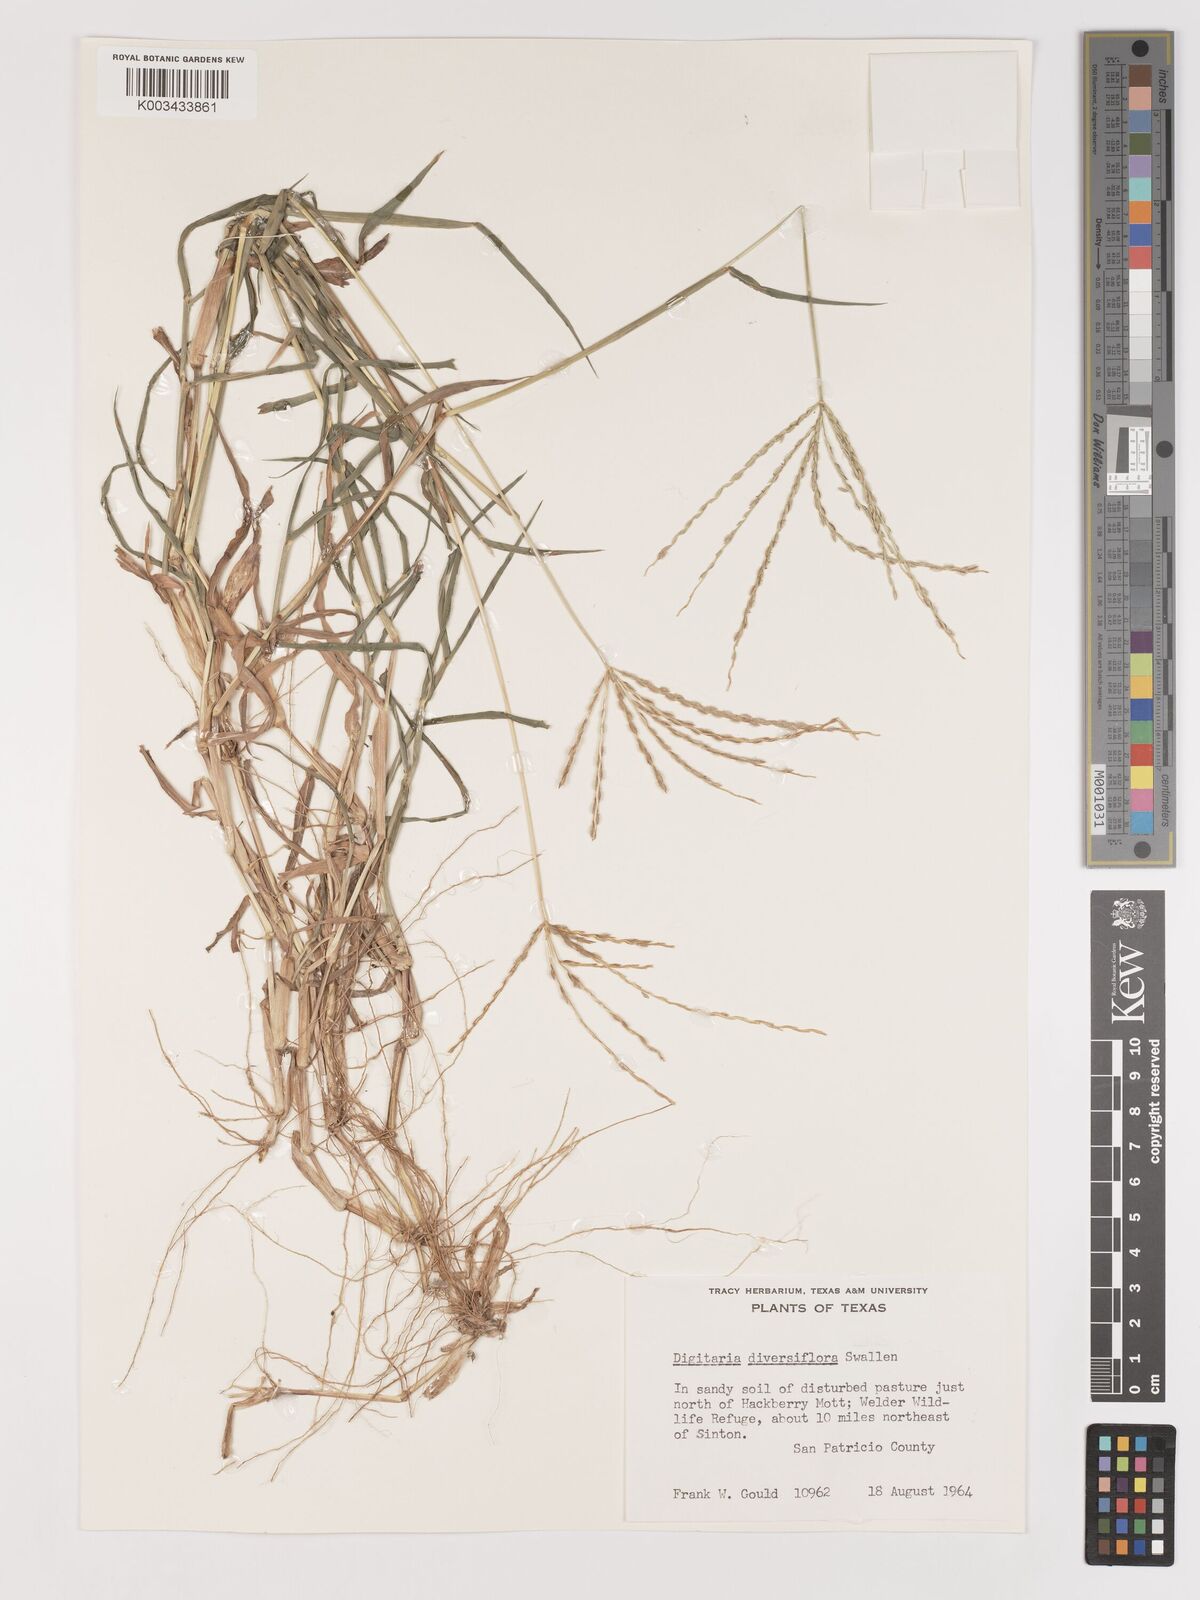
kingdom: Plantae
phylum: Tracheophyta
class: Liliopsida
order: Poales
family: Poaceae
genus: Digitaria
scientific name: Digitaria bicornis
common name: Asian crabgrass
